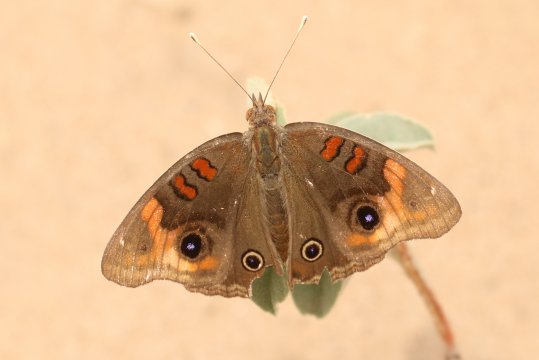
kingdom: Animalia
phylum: Arthropoda
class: Insecta
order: Lepidoptera
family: Nymphalidae
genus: Junonia
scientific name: Junonia lavinia
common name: Tropical Buckeye
